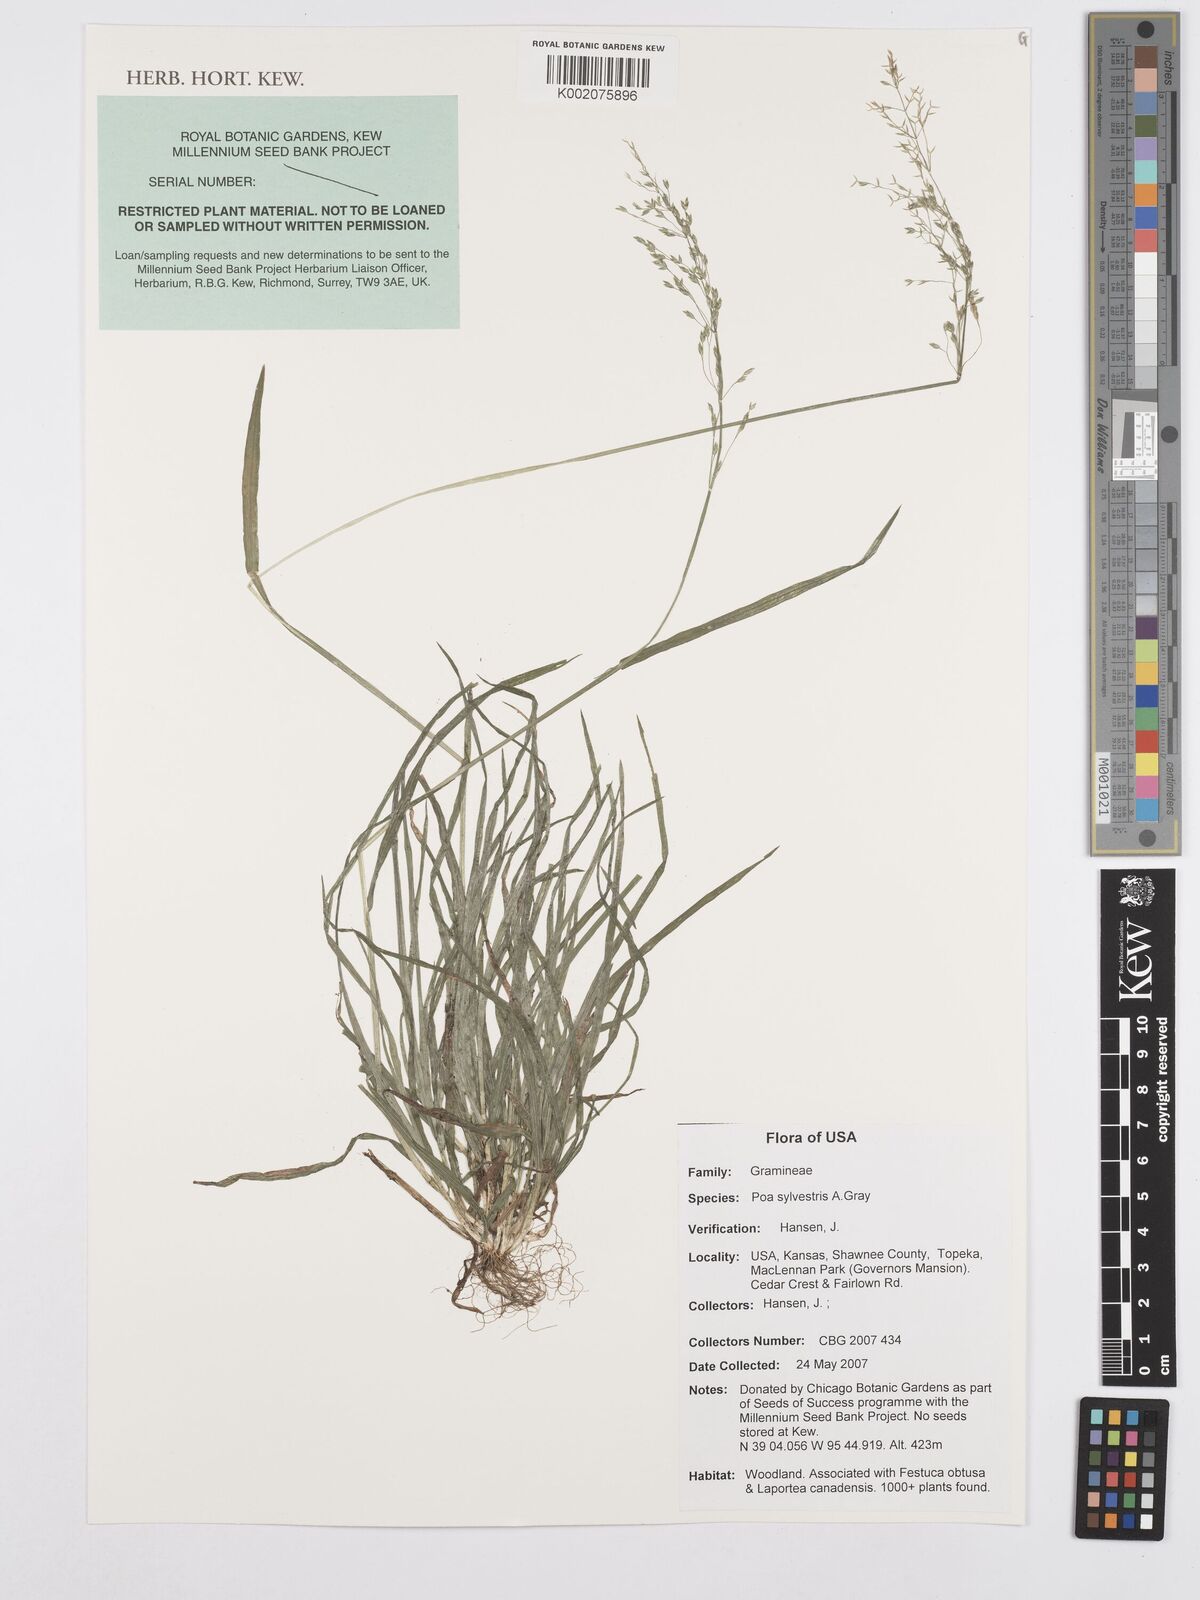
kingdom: Plantae
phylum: Tracheophyta
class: Liliopsida
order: Poales
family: Poaceae
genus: Poa
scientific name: Poa sylvestris
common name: North american woodland bluegrass
